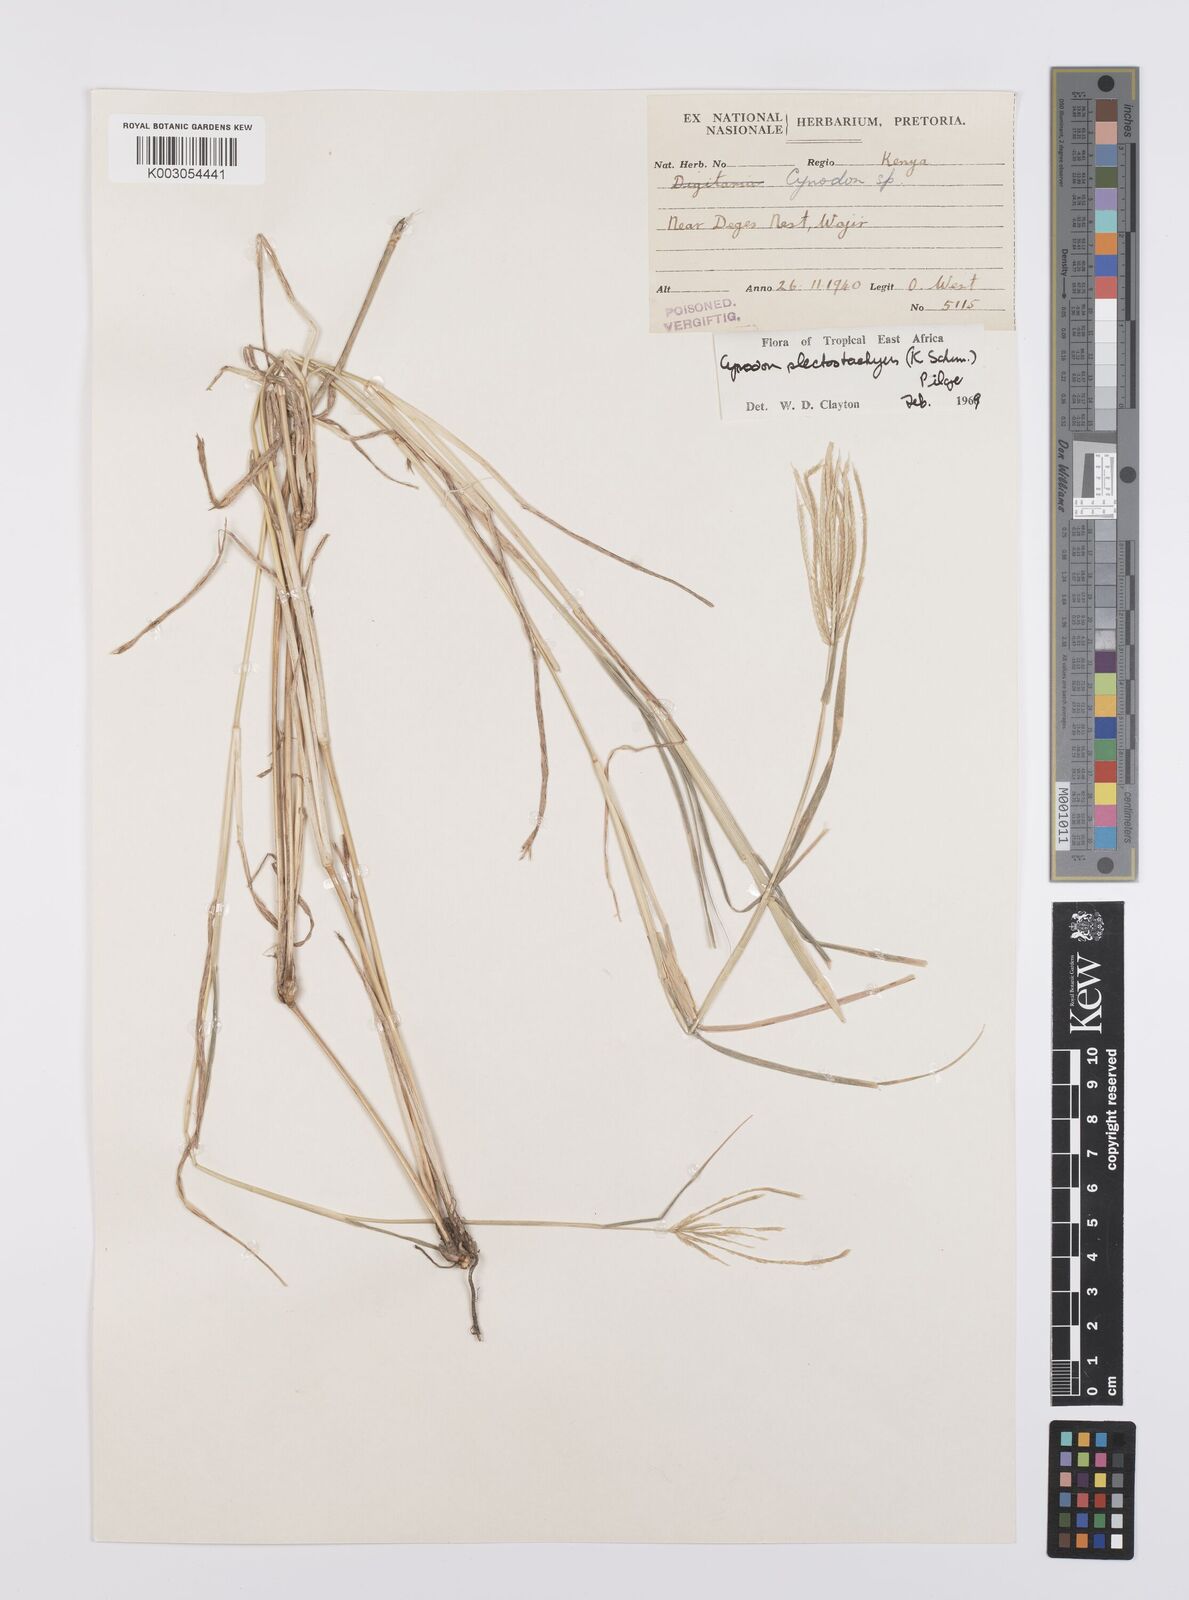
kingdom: Plantae
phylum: Tracheophyta
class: Liliopsida
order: Poales
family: Poaceae
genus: Cynodon
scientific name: Cynodon plectostachyus
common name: Stargrass
